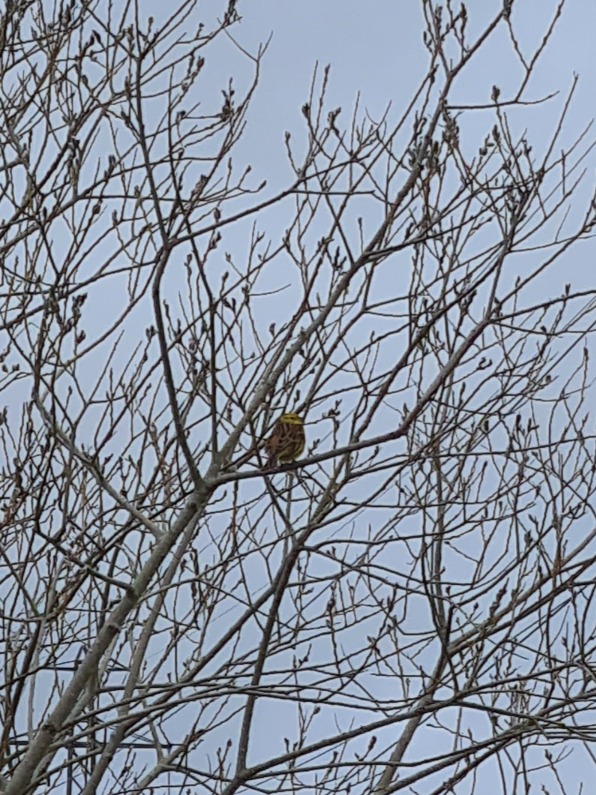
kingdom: Animalia
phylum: Chordata
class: Aves
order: Passeriformes
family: Emberizidae
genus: Emberiza
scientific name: Emberiza citrinella
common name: Gulspurv
